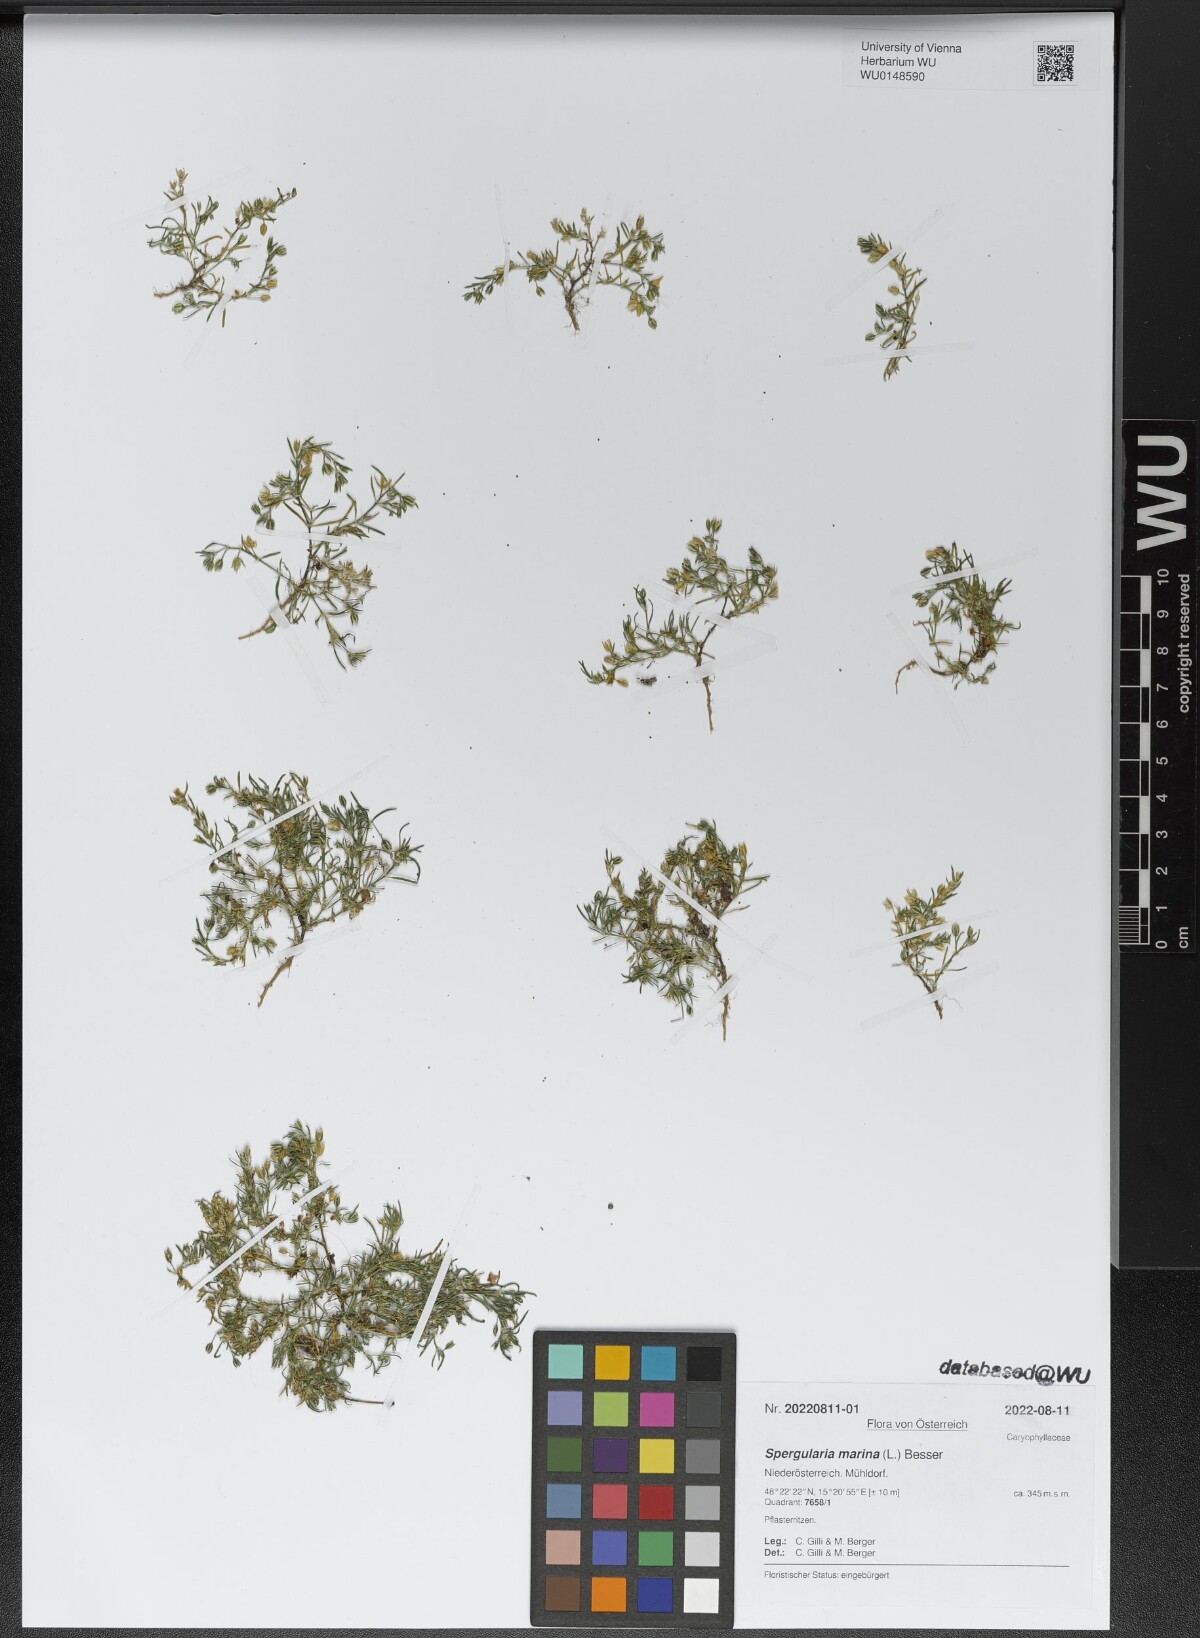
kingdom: Plantae
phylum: Tracheophyta
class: Magnoliopsida
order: Caryophyllales
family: Caryophyllaceae
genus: Spergularia
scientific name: Spergularia marina
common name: Lesser sea-spurrey
